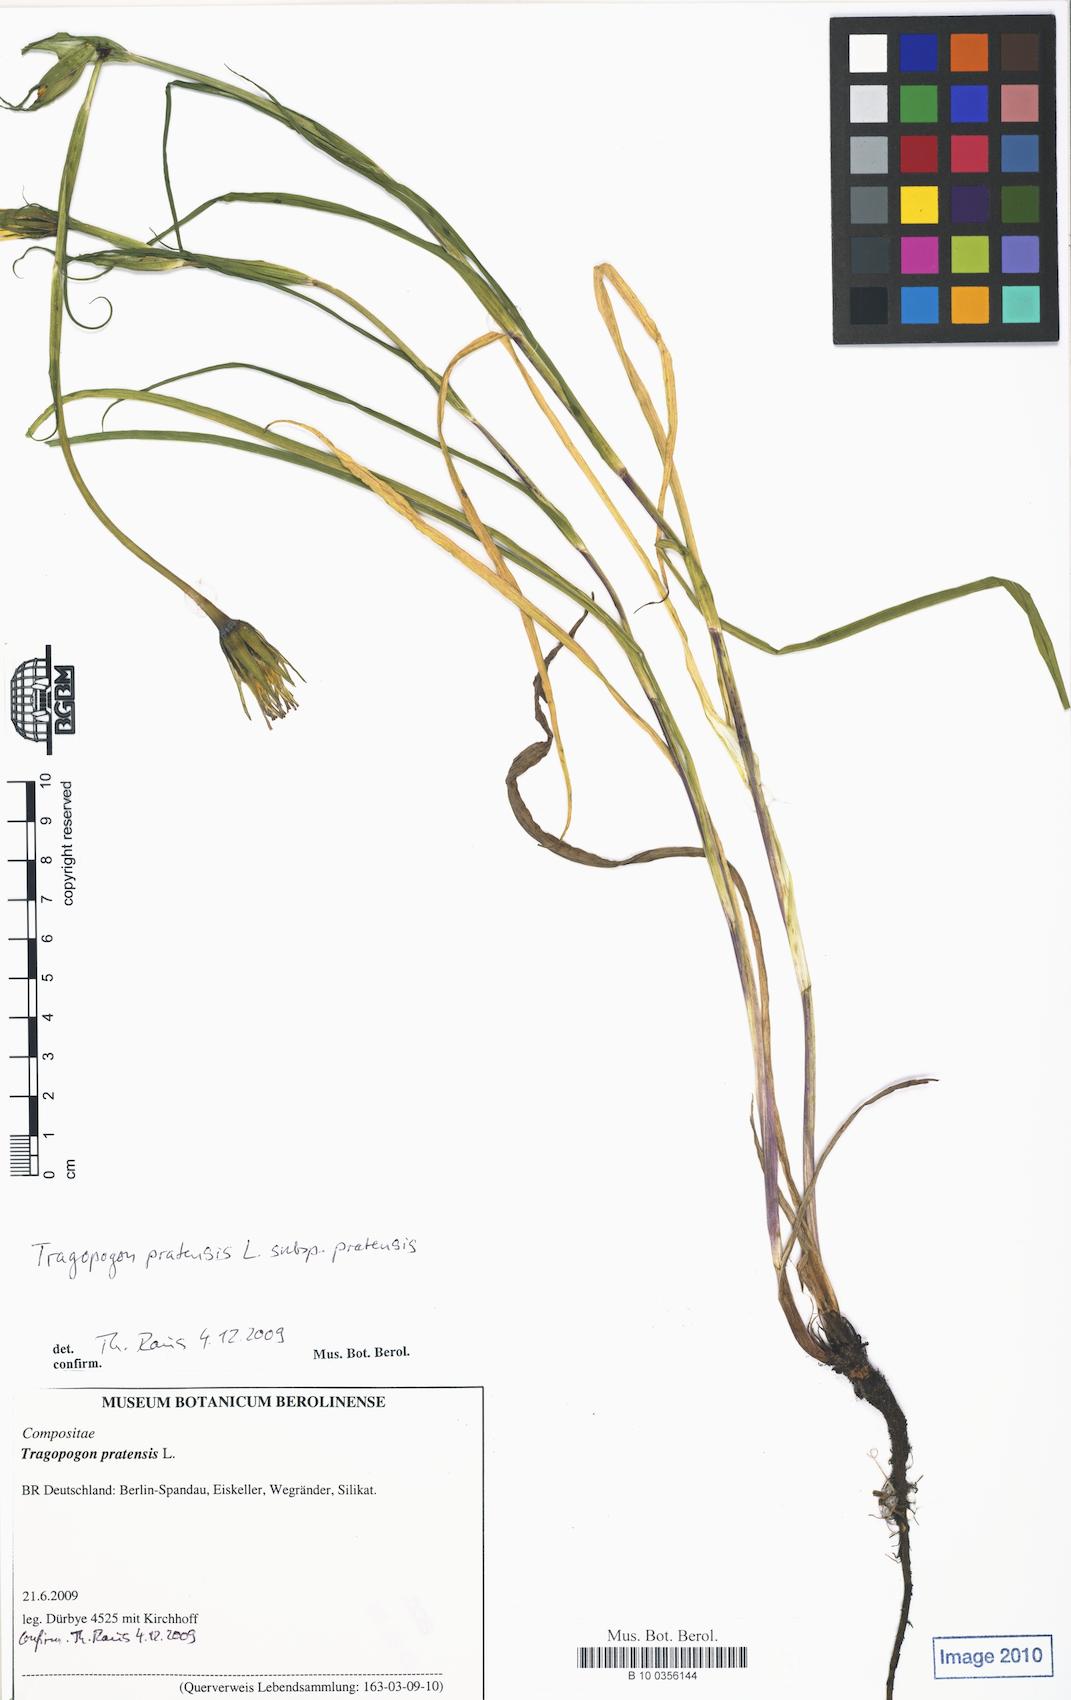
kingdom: Plantae
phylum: Tracheophyta
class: Magnoliopsida
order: Asterales
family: Asteraceae
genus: Tragopogon
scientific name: Tragopogon pratensis
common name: Goat's-beard
